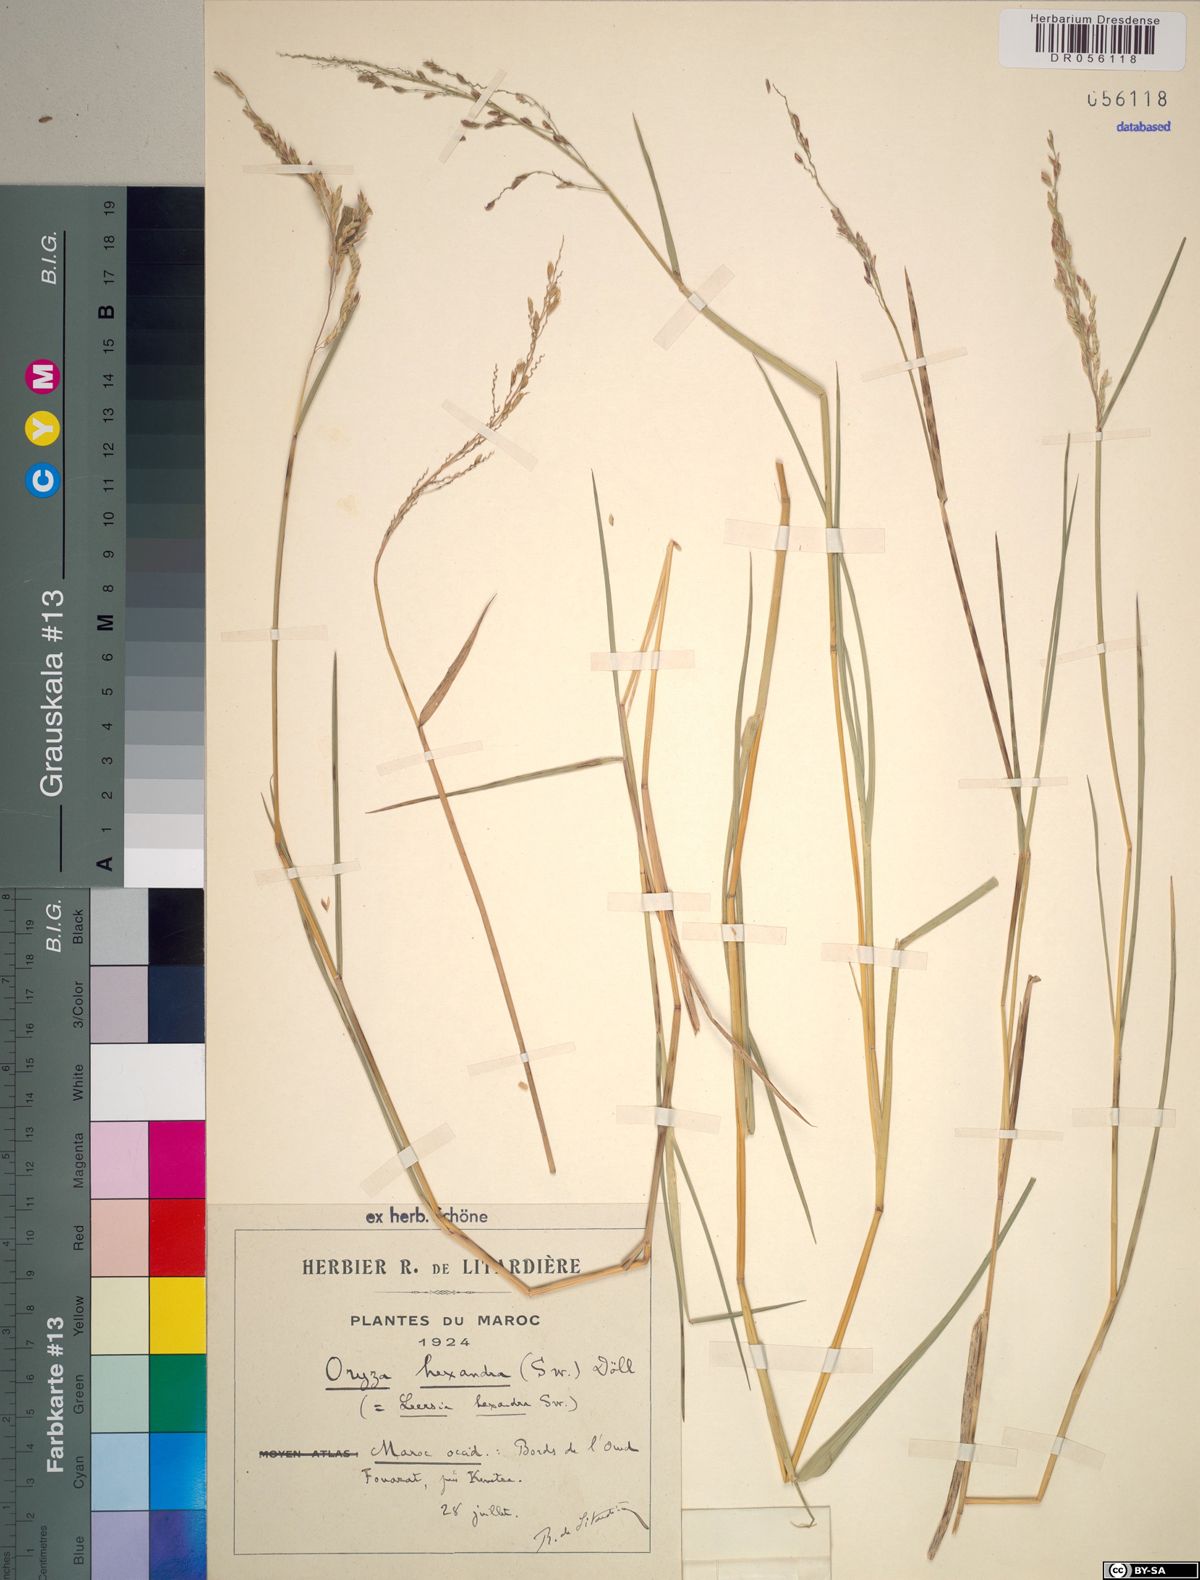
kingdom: Plantae
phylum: Tracheophyta
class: Liliopsida
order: Poales
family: Poaceae
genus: Leersia
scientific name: Leersia hexandra
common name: Southern cut grass
